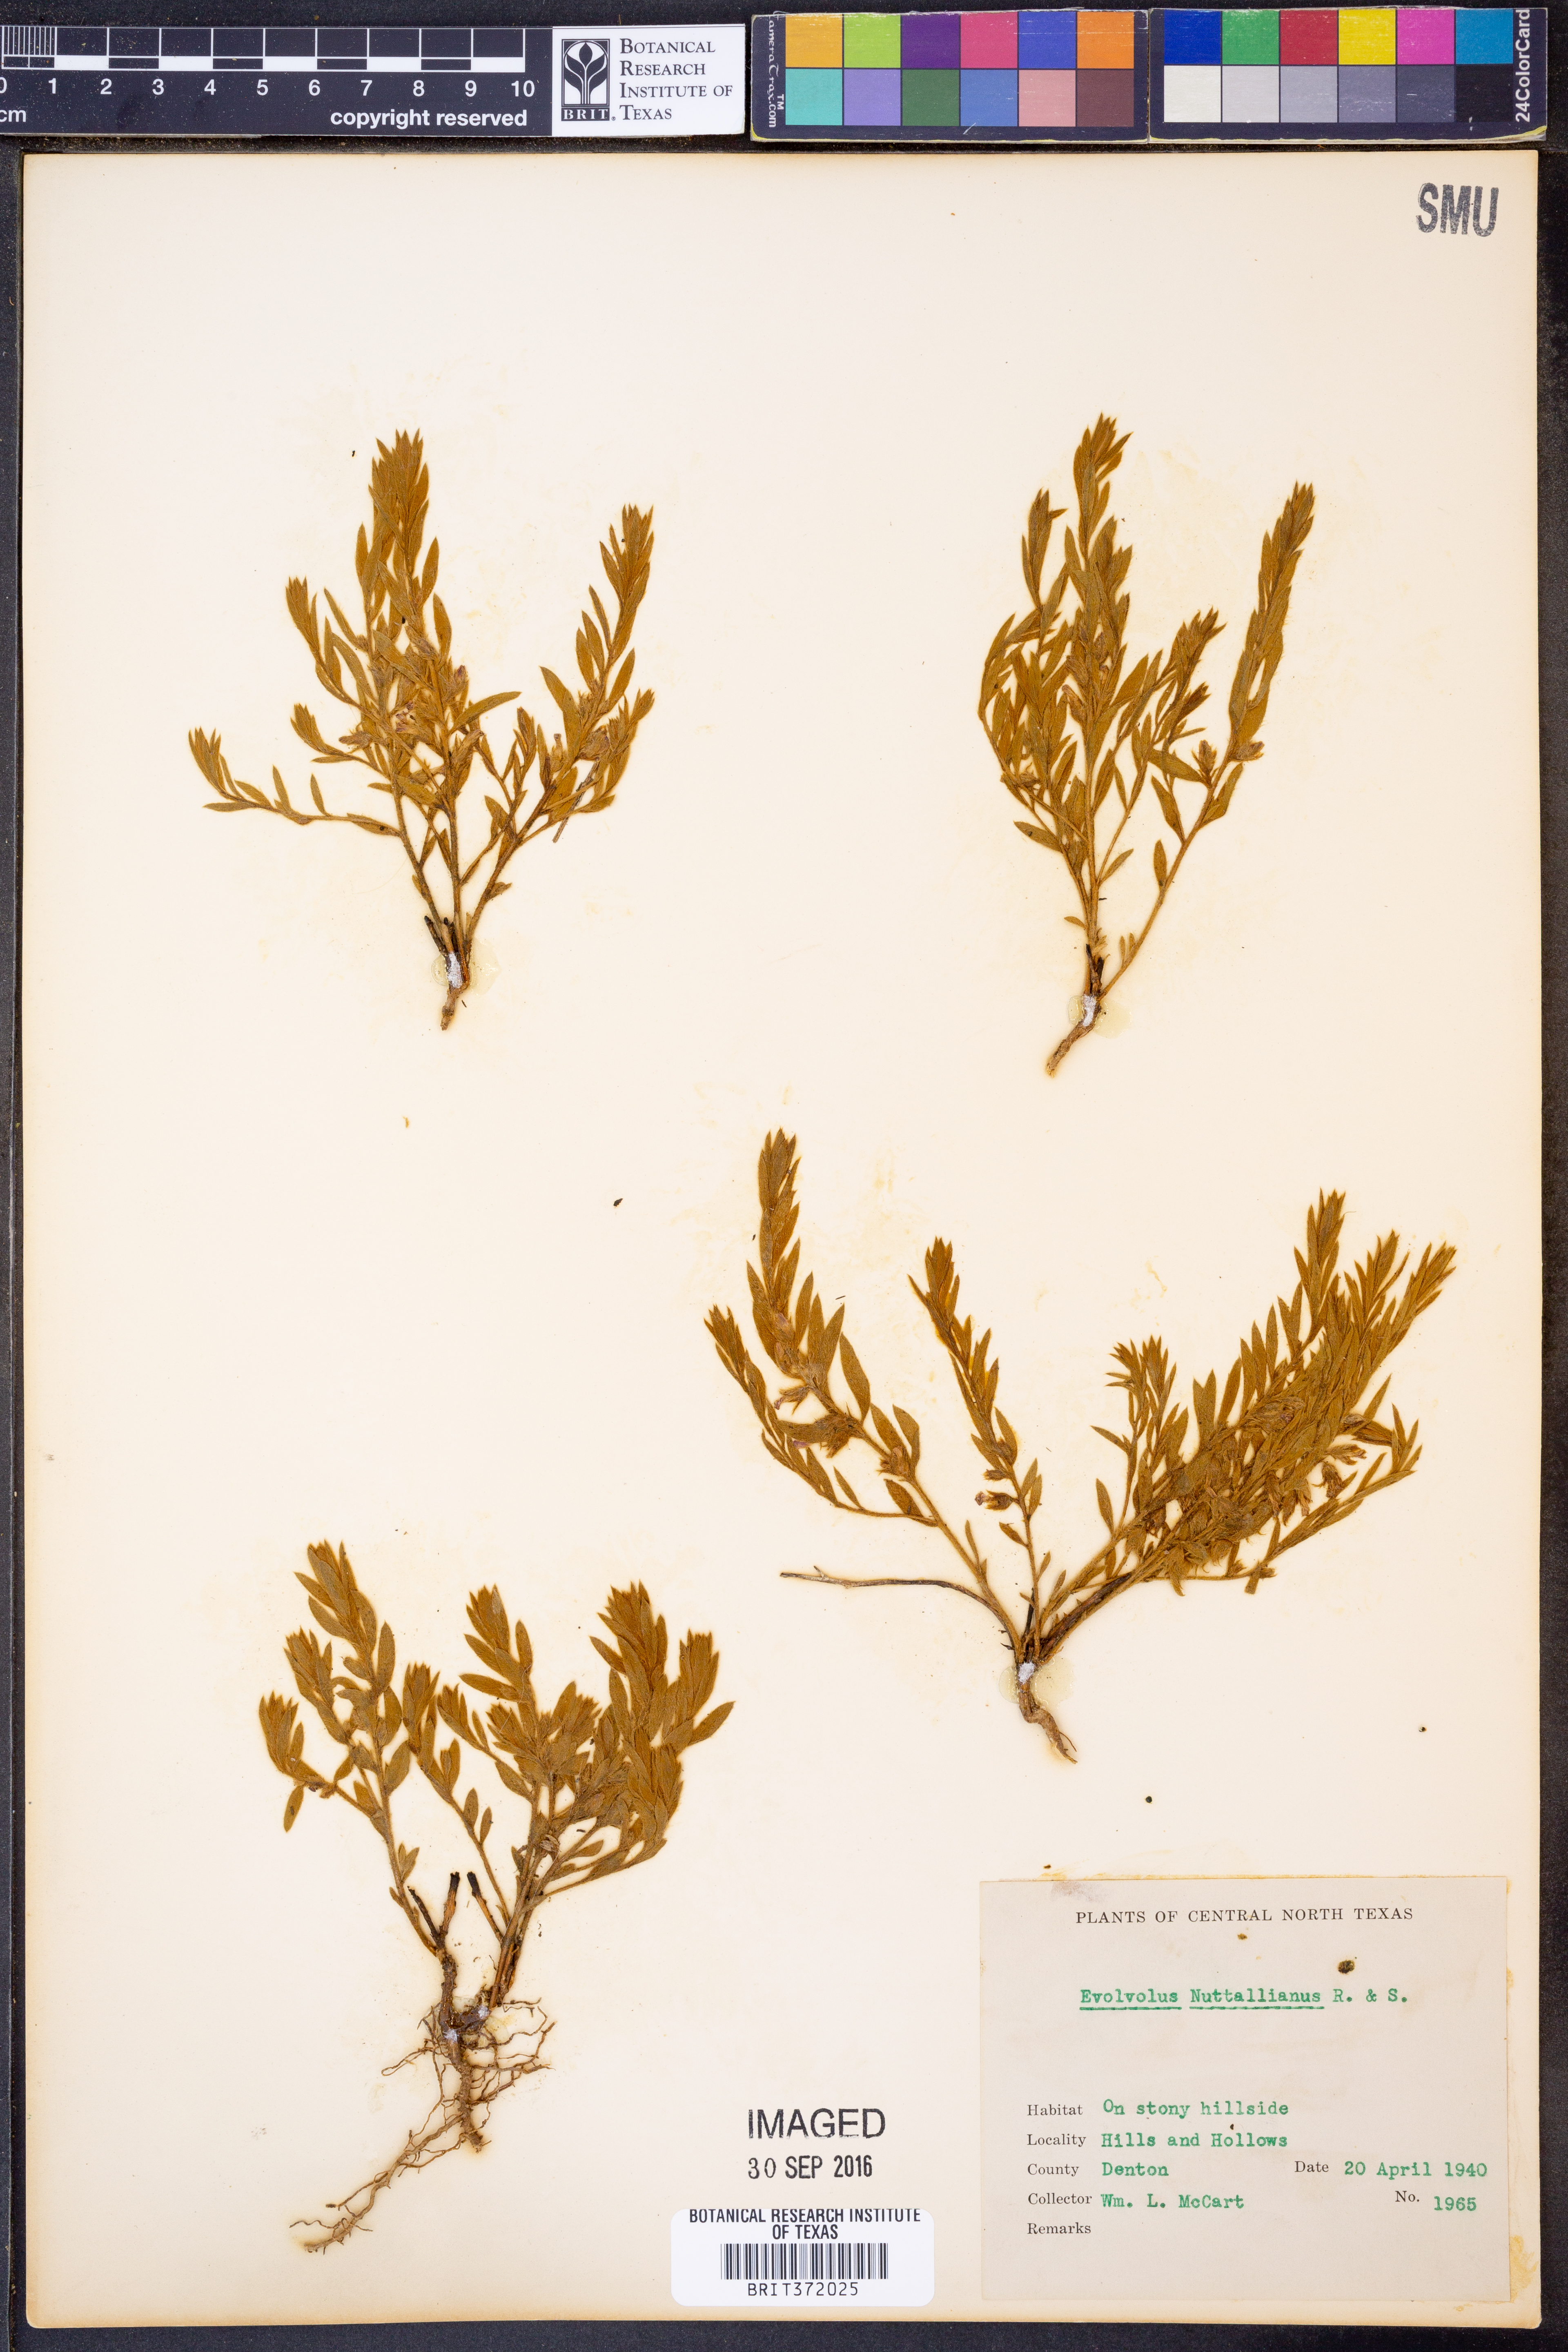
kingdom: Plantae
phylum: Tracheophyta
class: Magnoliopsida
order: Solanales
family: Convolvulaceae
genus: Evolvulus
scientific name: Evolvulus nuttallianus
